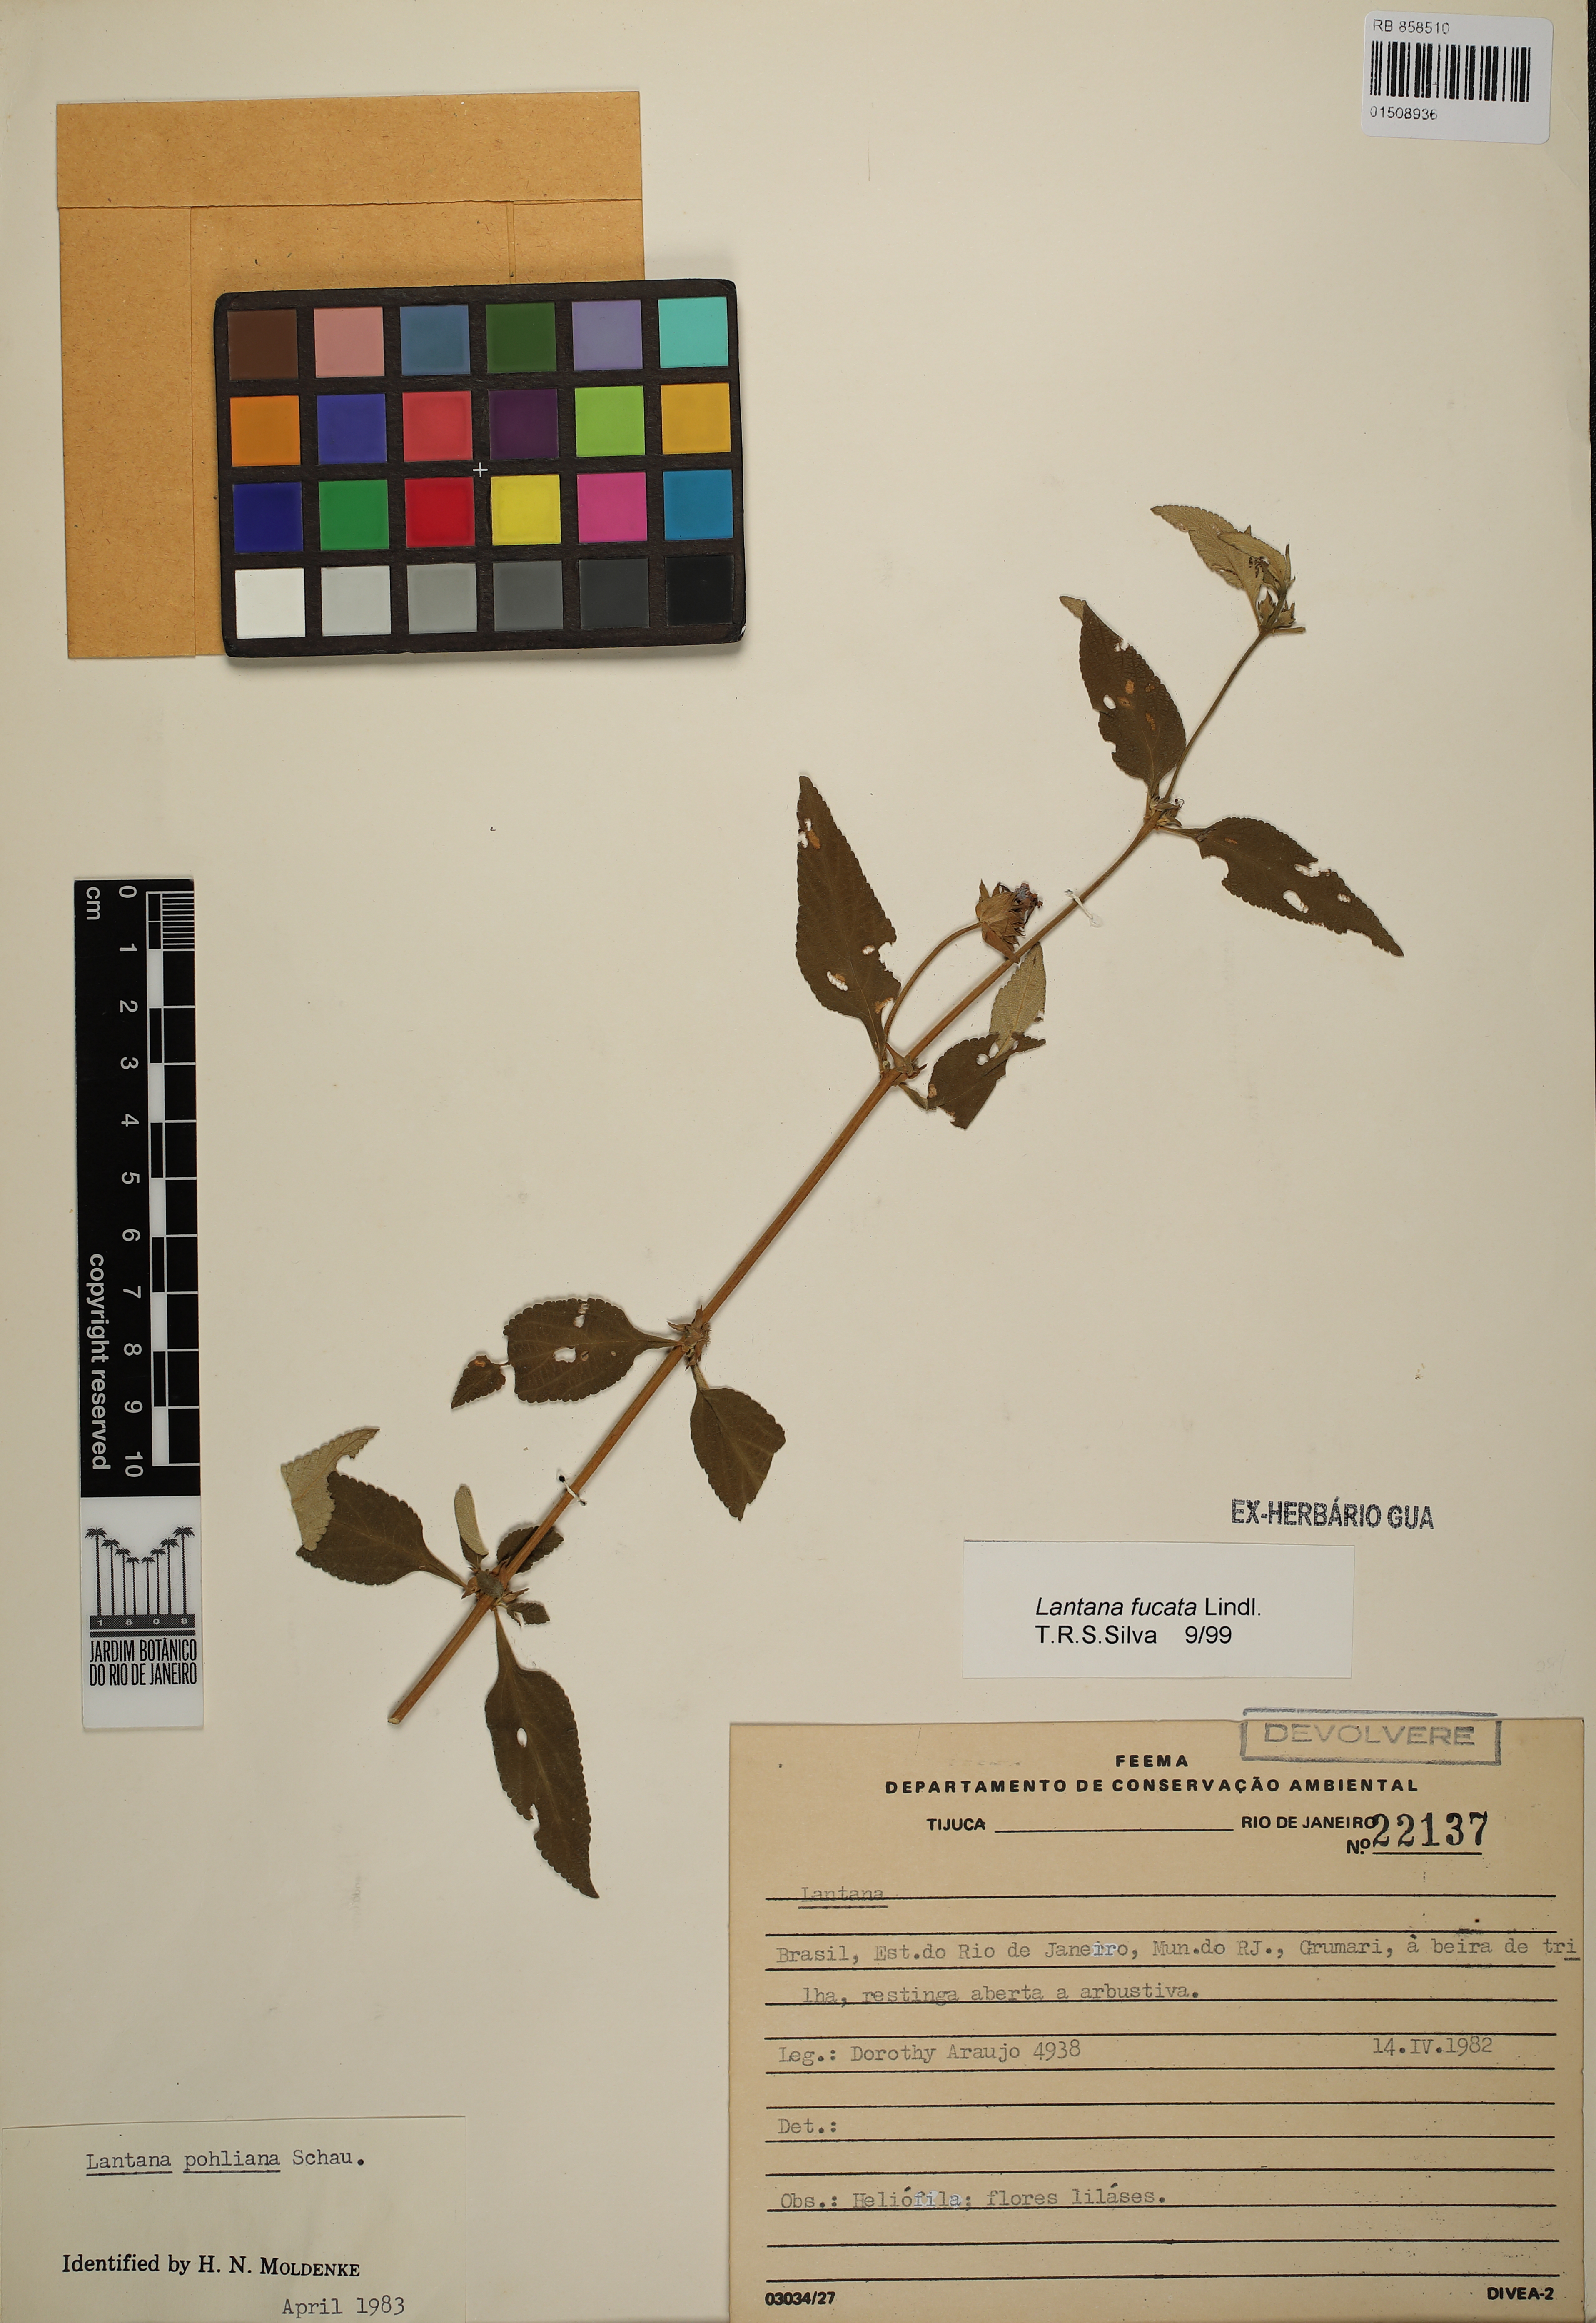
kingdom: Plantae
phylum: Tracheophyta
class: Magnoliopsida
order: Lamiales
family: Verbenaceae
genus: Lantana
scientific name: Lantana fucata
